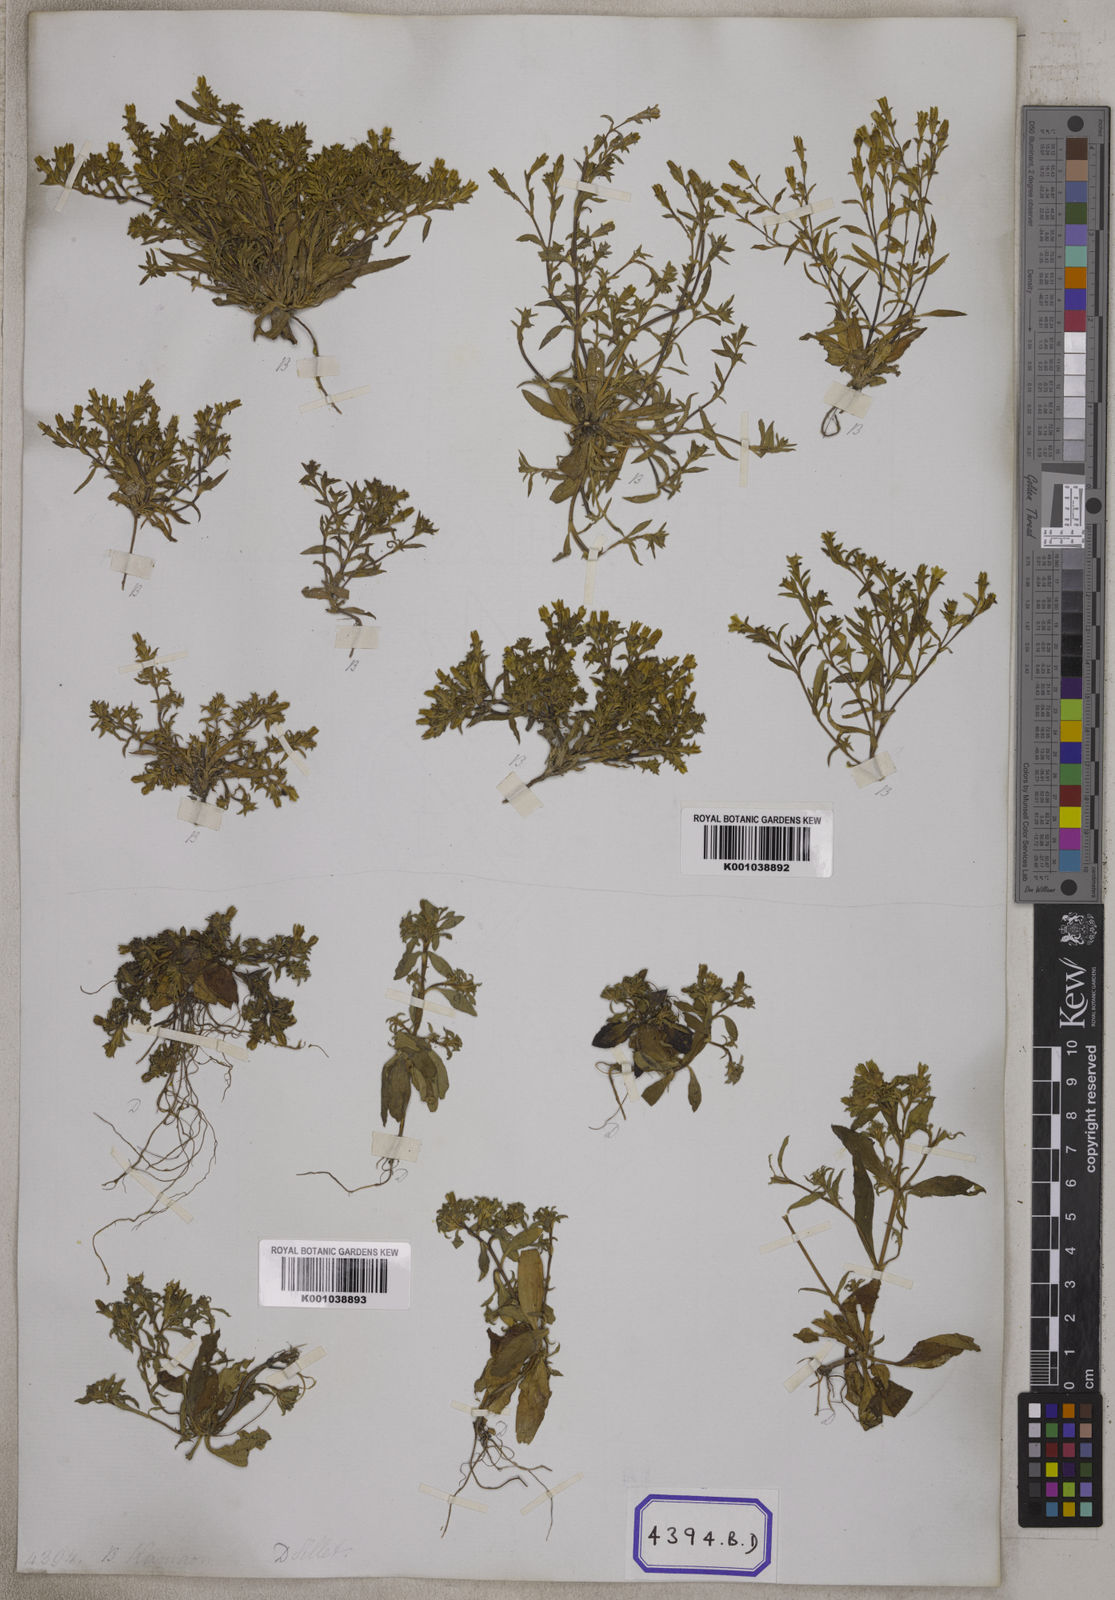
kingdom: Plantae
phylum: Tracheophyta
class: Magnoliopsida
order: Gentianales
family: Gentianaceae
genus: Gentiana
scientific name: Gentiana pedicellata
